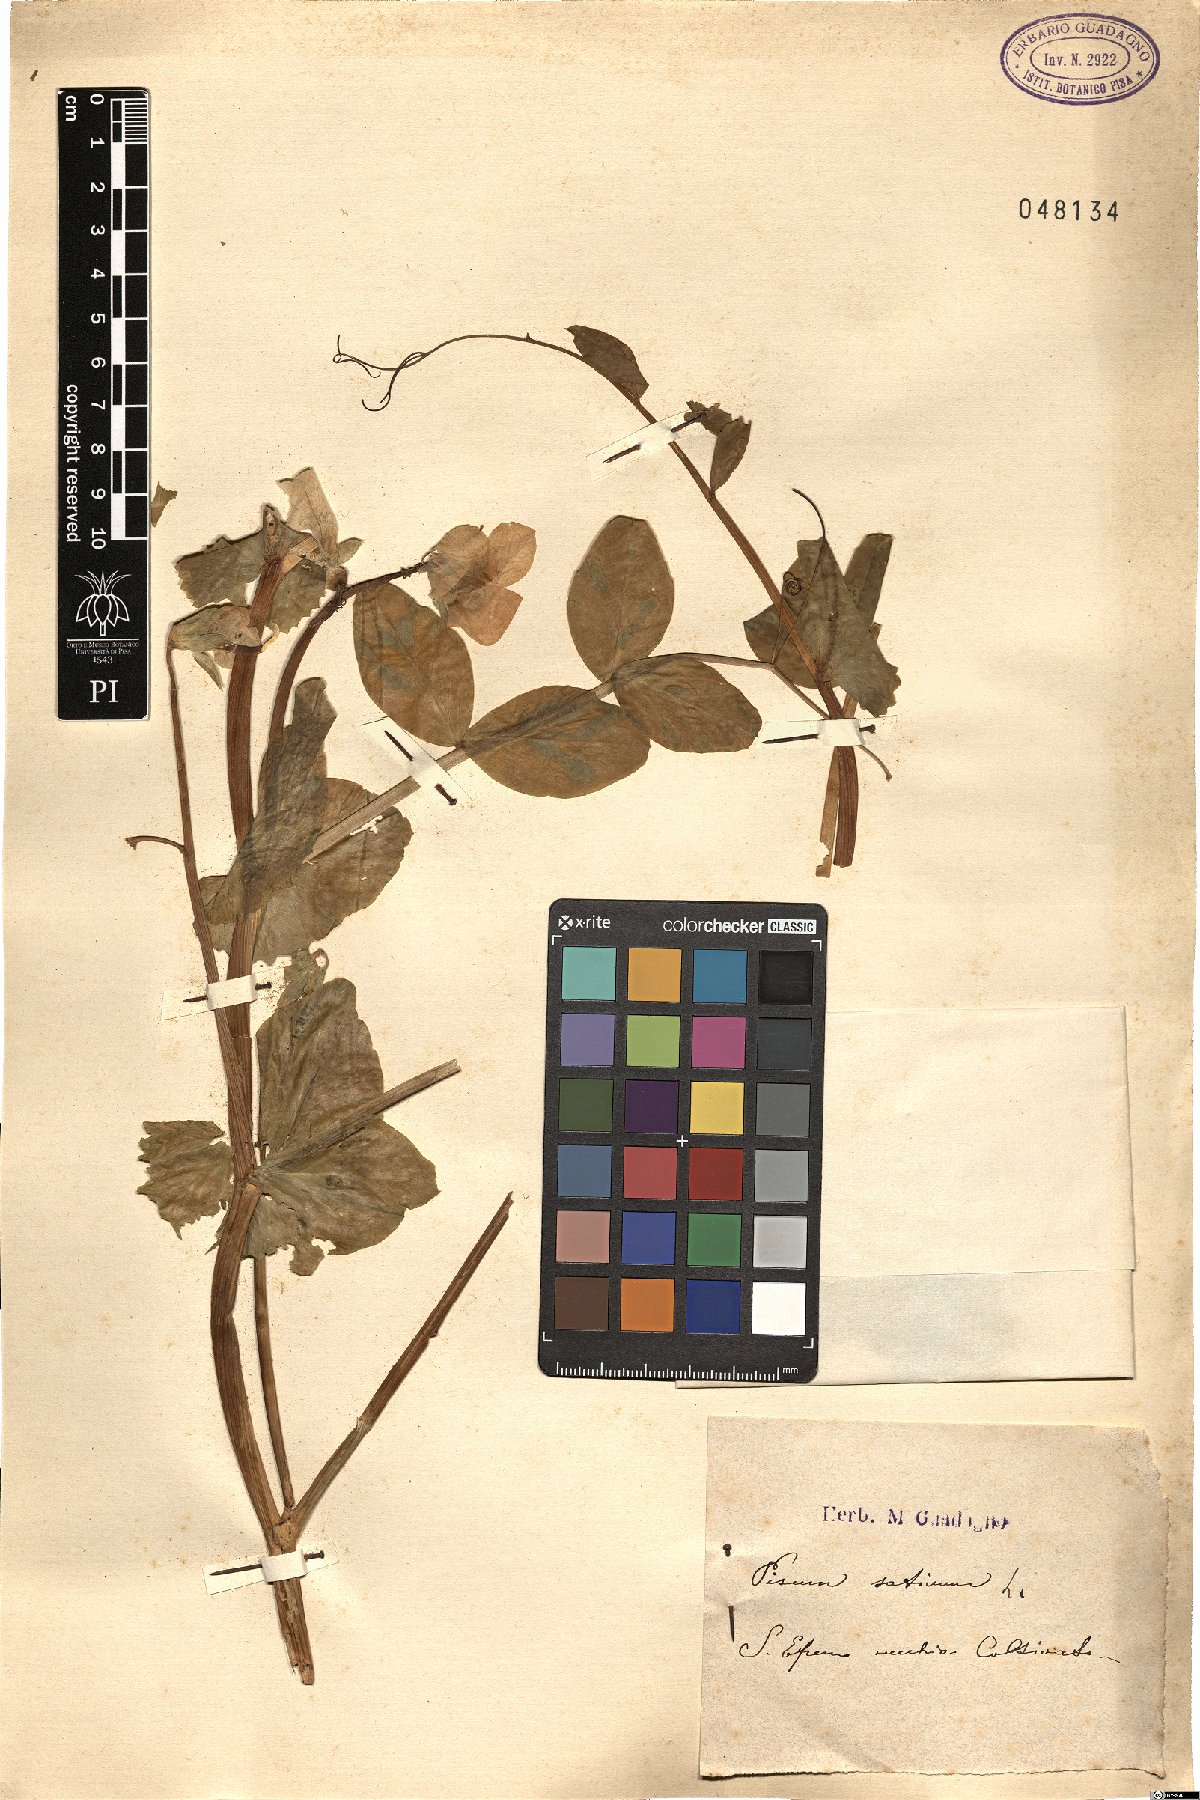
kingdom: Plantae
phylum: Tracheophyta
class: Magnoliopsida
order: Fabales
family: Fabaceae
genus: Lathyrus
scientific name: Lathyrus oleraceus
